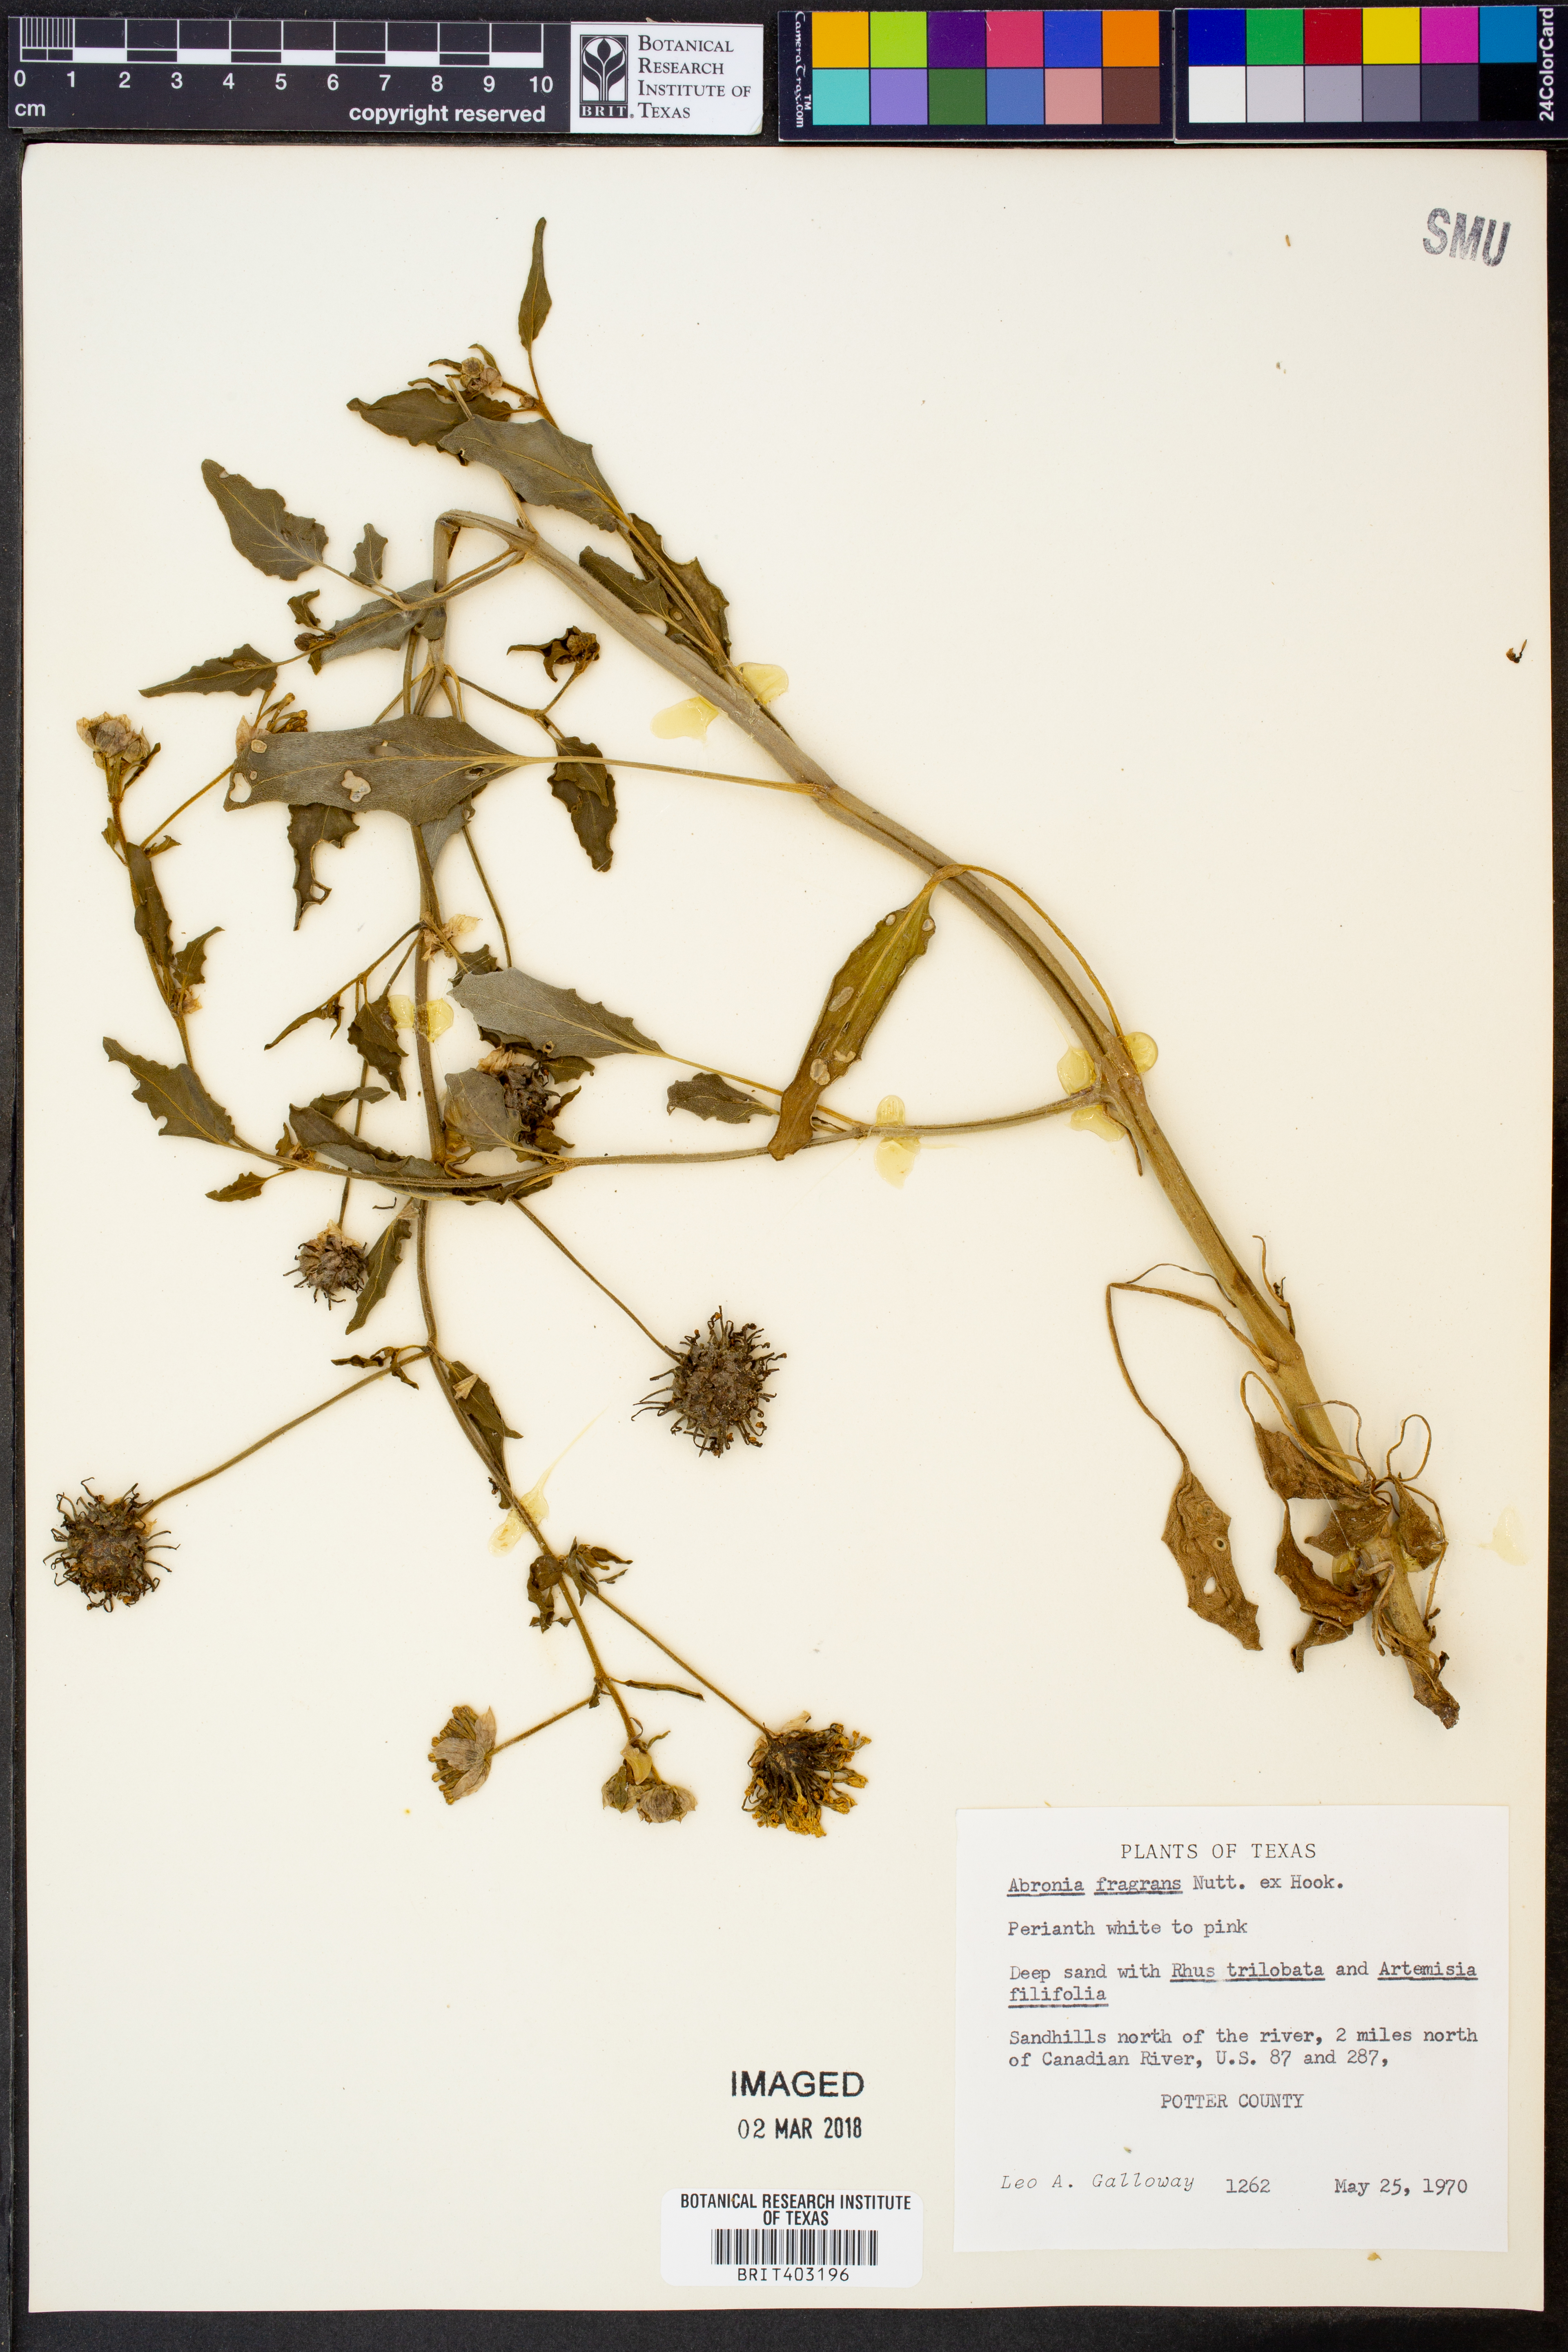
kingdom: Plantae
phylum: Tracheophyta
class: Magnoliopsida
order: Caryophyllales
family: Nyctaginaceae
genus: Abronia
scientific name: Abronia fragrans
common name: Fragrant sand-verbena
